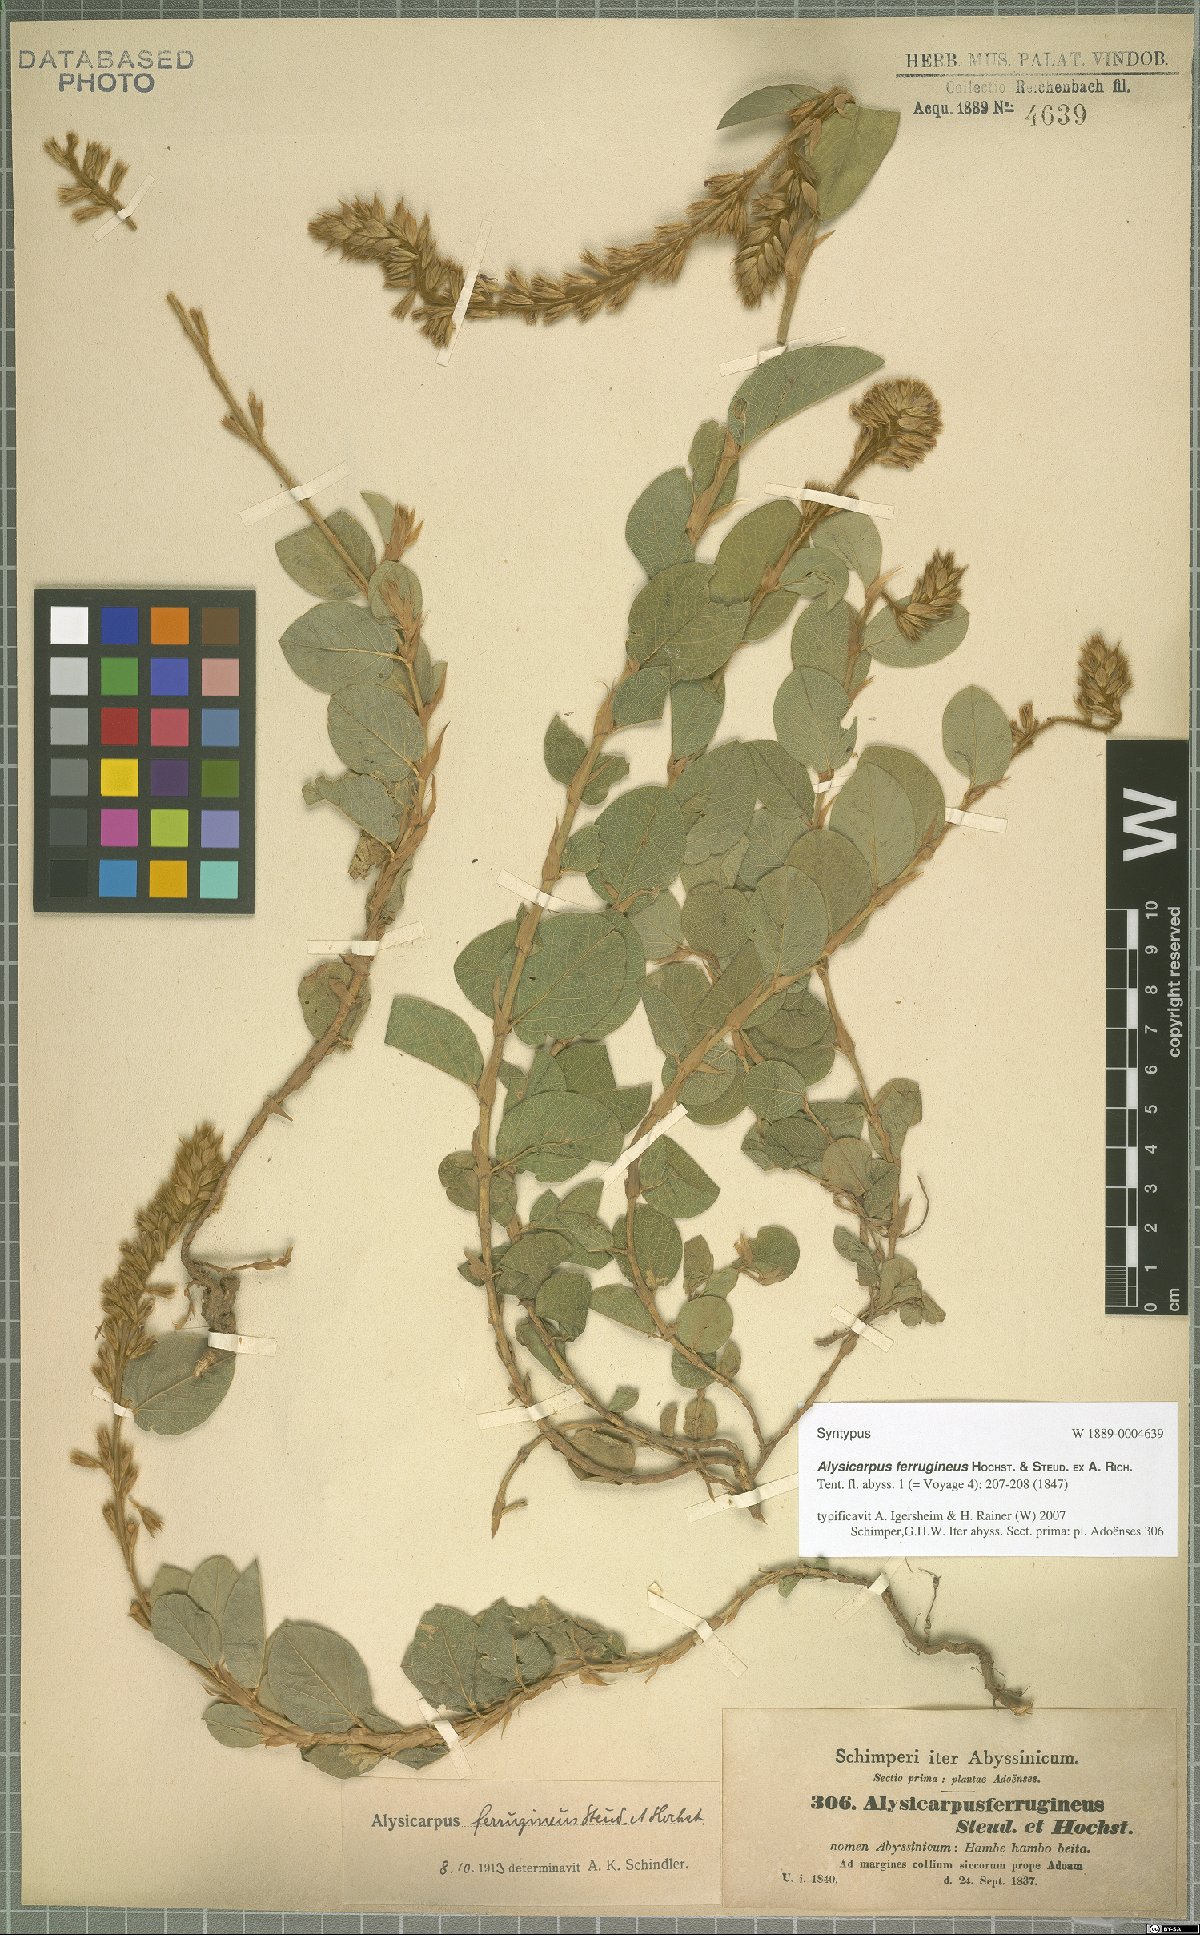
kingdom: Plantae
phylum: Tracheophyta
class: Magnoliopsida
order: Fabales
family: Fabaceae
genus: Alysicarpus
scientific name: Alysicarpus ferrugineus
